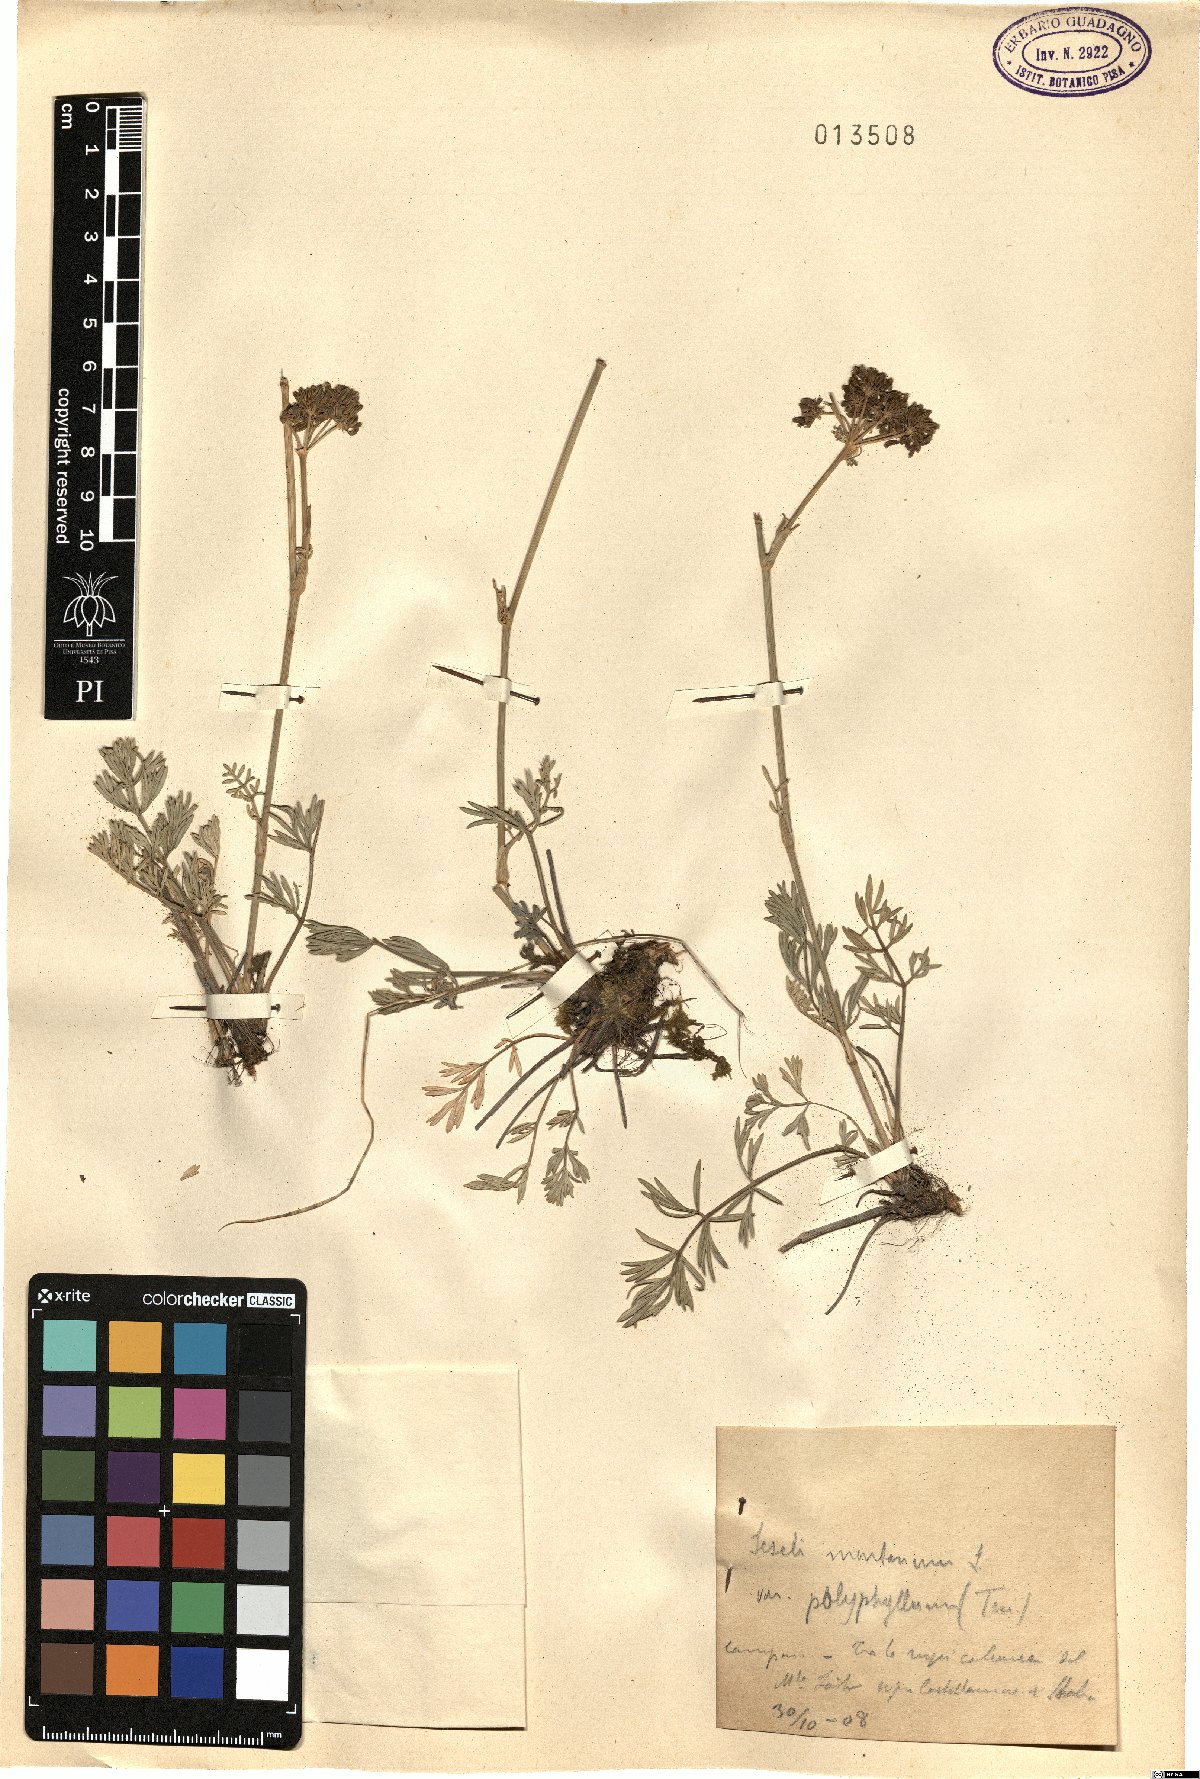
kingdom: Plantae
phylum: Tracheophyta
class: Magnoliopsida
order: Apiales
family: Apiaceae
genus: Seseli
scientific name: Seseli polyphyllum
